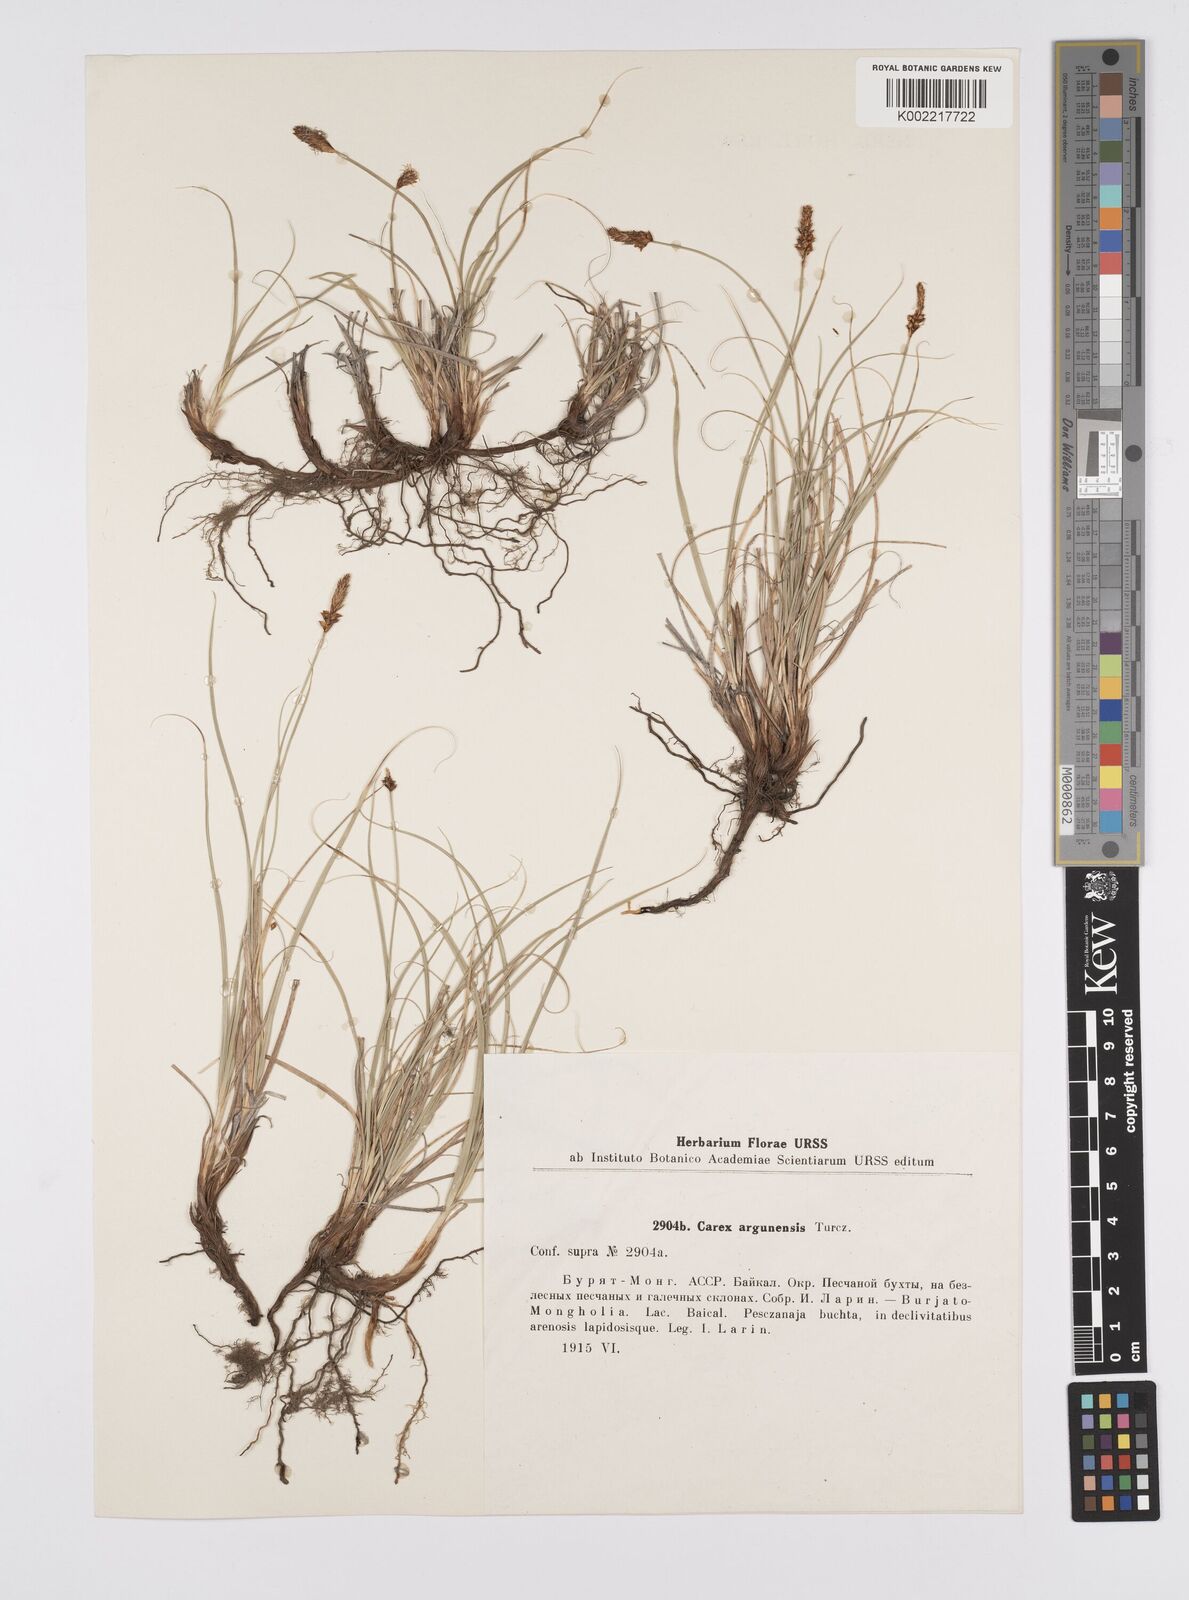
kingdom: Plantae
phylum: Tracheophyta
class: Liliopsida
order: Poales
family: Cyperaceae
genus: Carex
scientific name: Carex argunensis
